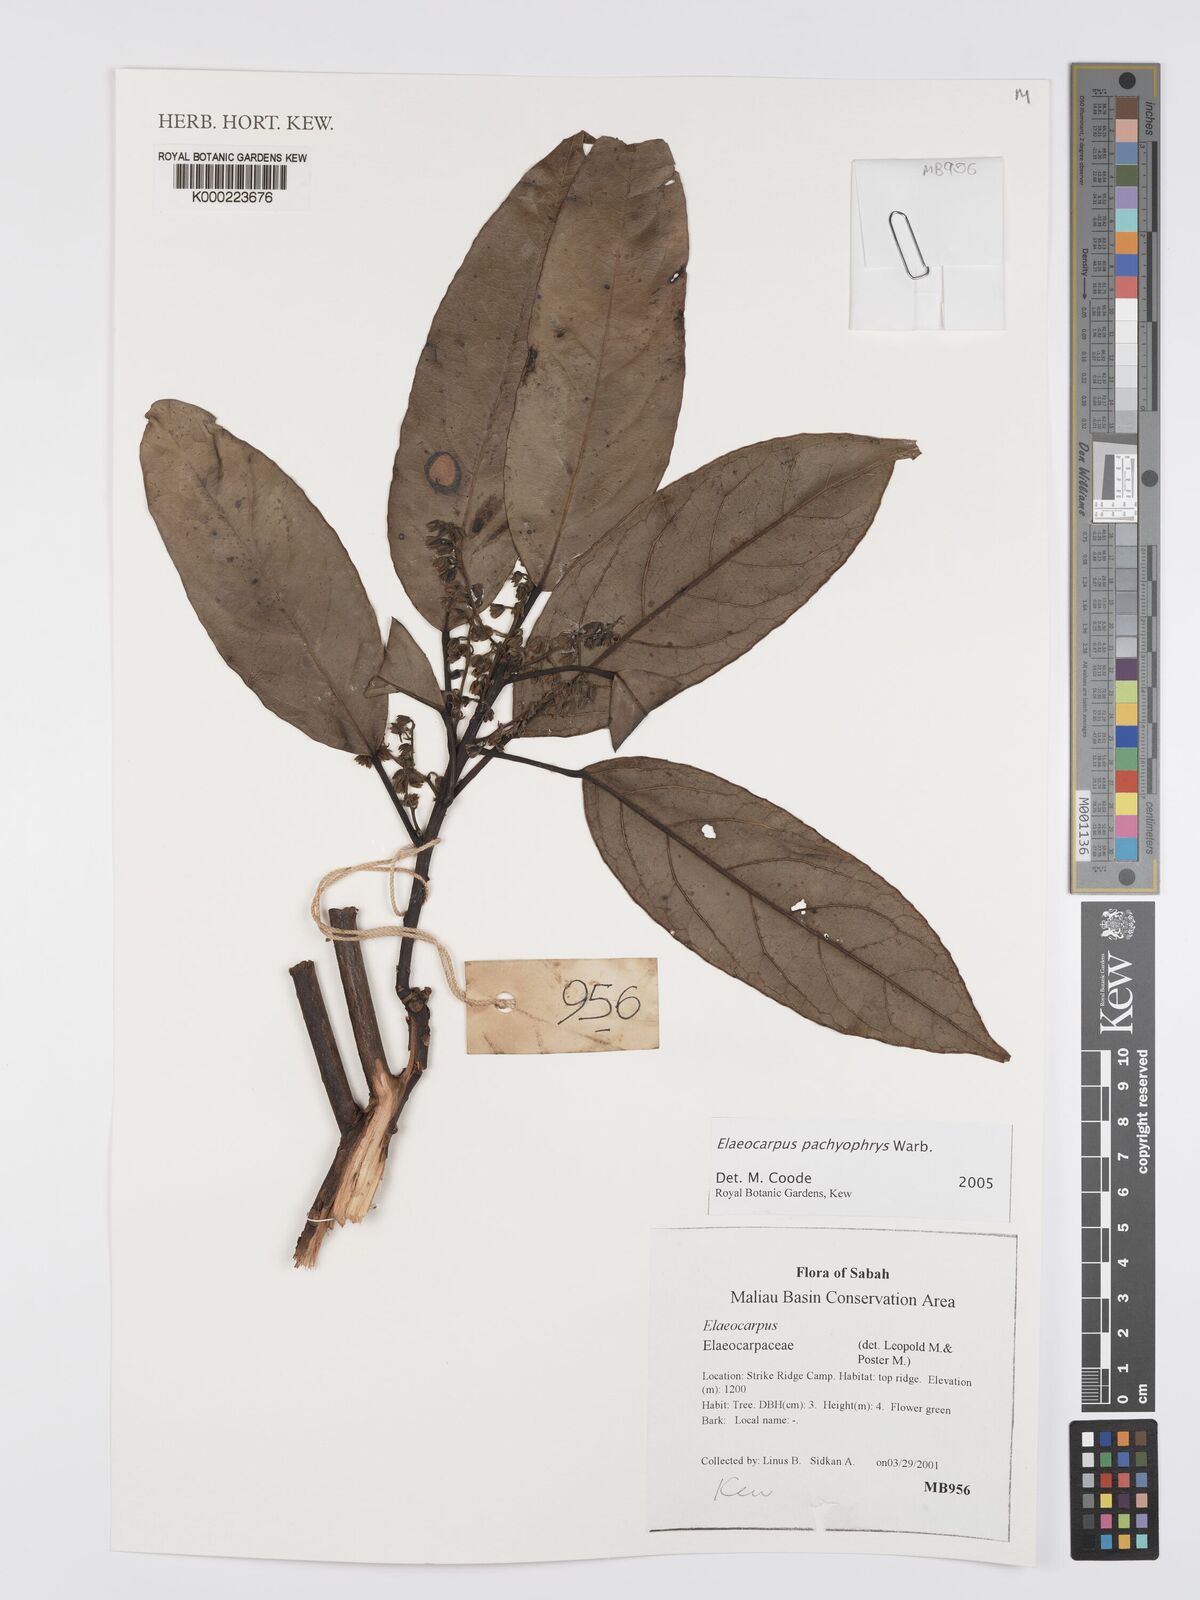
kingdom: Plantae
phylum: Tracheophyta
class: Magnoliopsida
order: Oxalidales
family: Elaeocarpaceae
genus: Elaeocarpus
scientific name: Elaeocarpus pachyophrys
